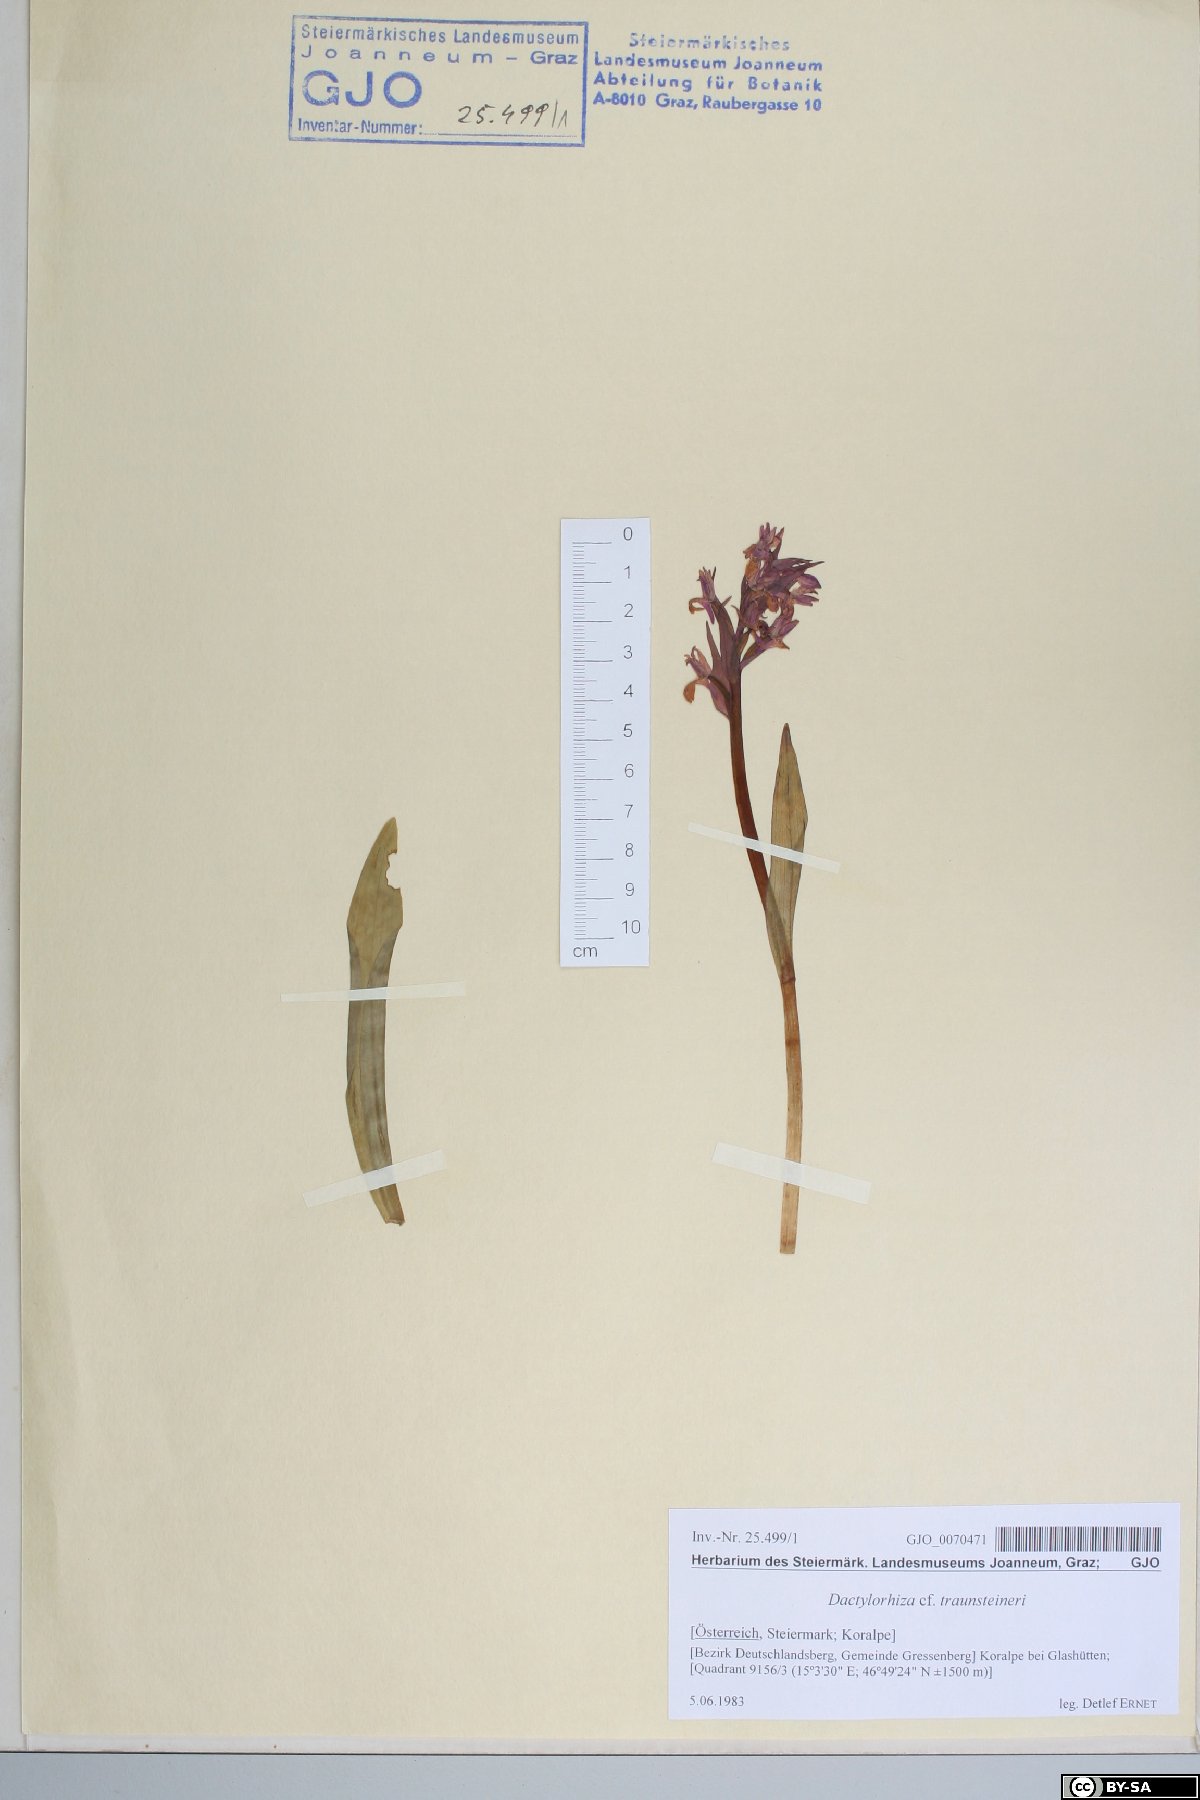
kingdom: Plantae
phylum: Tracheophyta
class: Liliopsida
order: Asparagales
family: Orchidaceae
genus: Dactylorhiza
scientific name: Dactylorhiza majalis
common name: Marsh orchid
